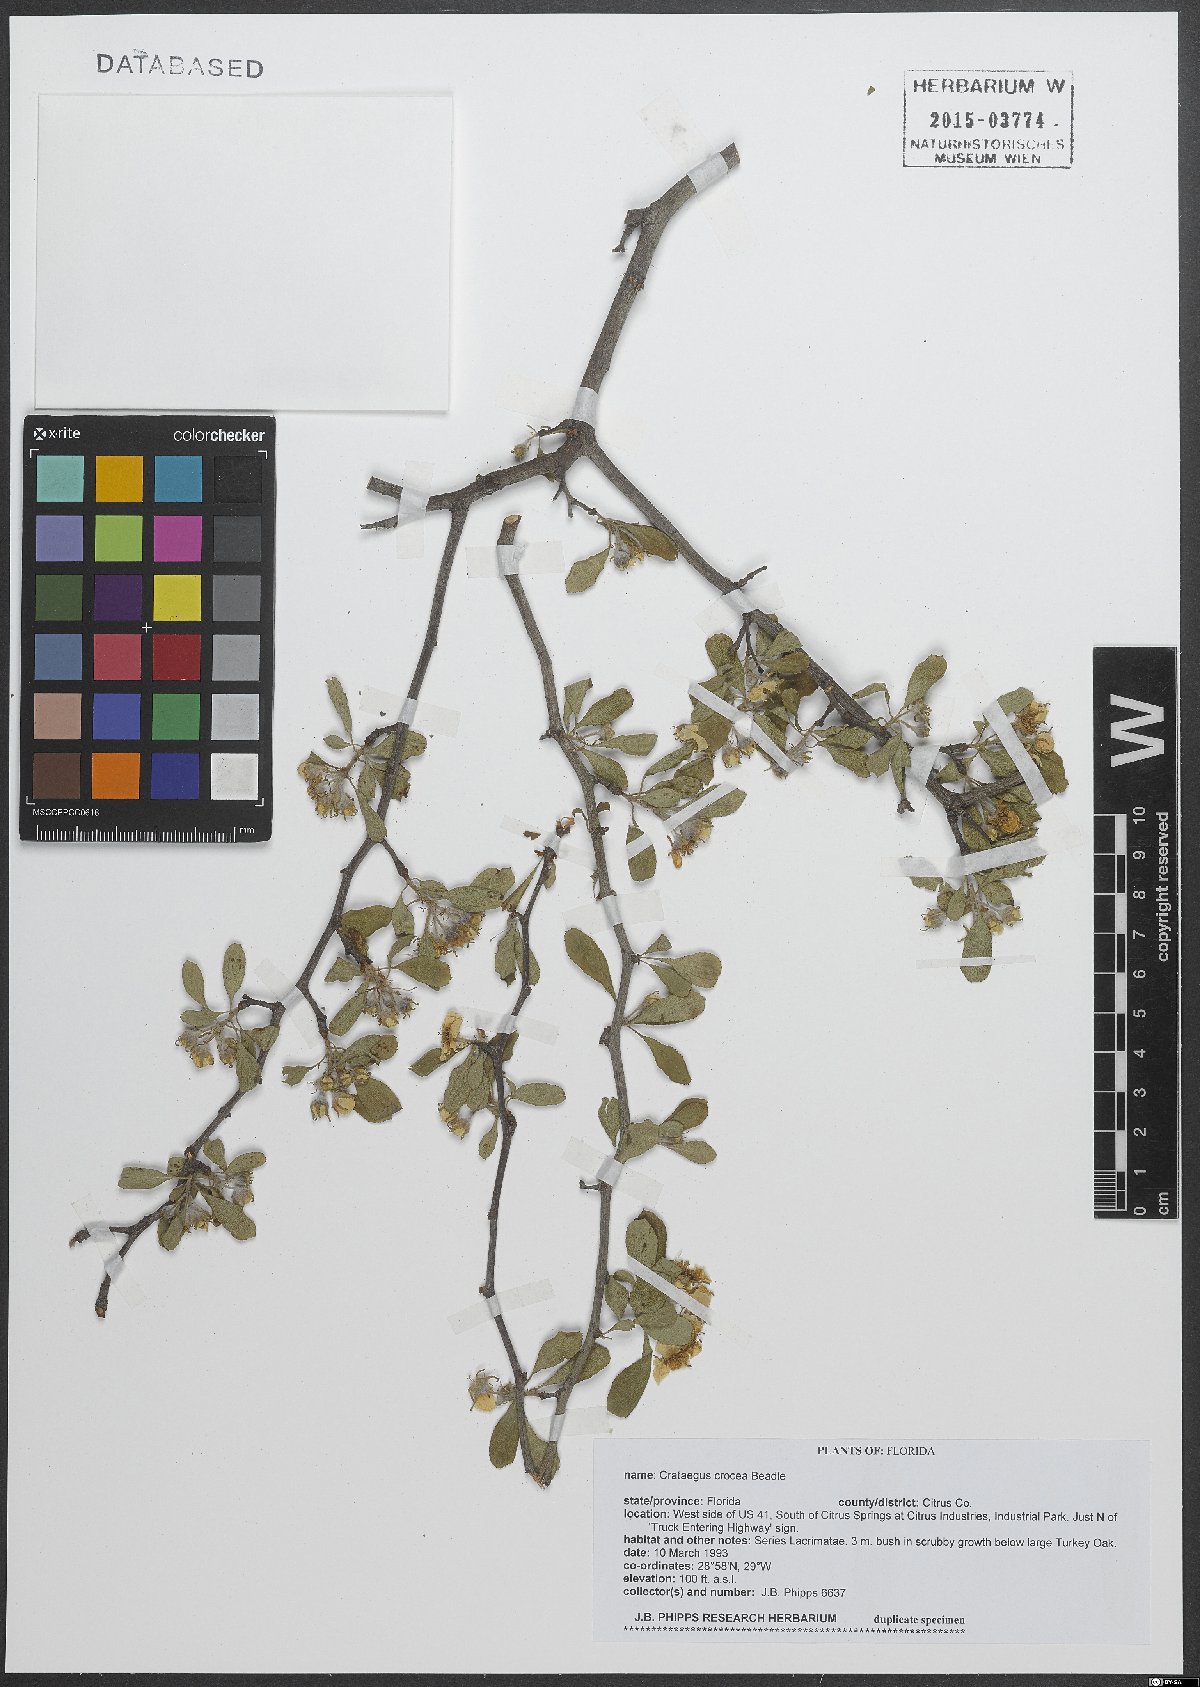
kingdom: Plantae
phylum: Tracheophyta
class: Magnoliopsida
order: Rosales
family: Rosaceae
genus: Crataegus
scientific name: Crataegus lassa
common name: Florida hawthorn
